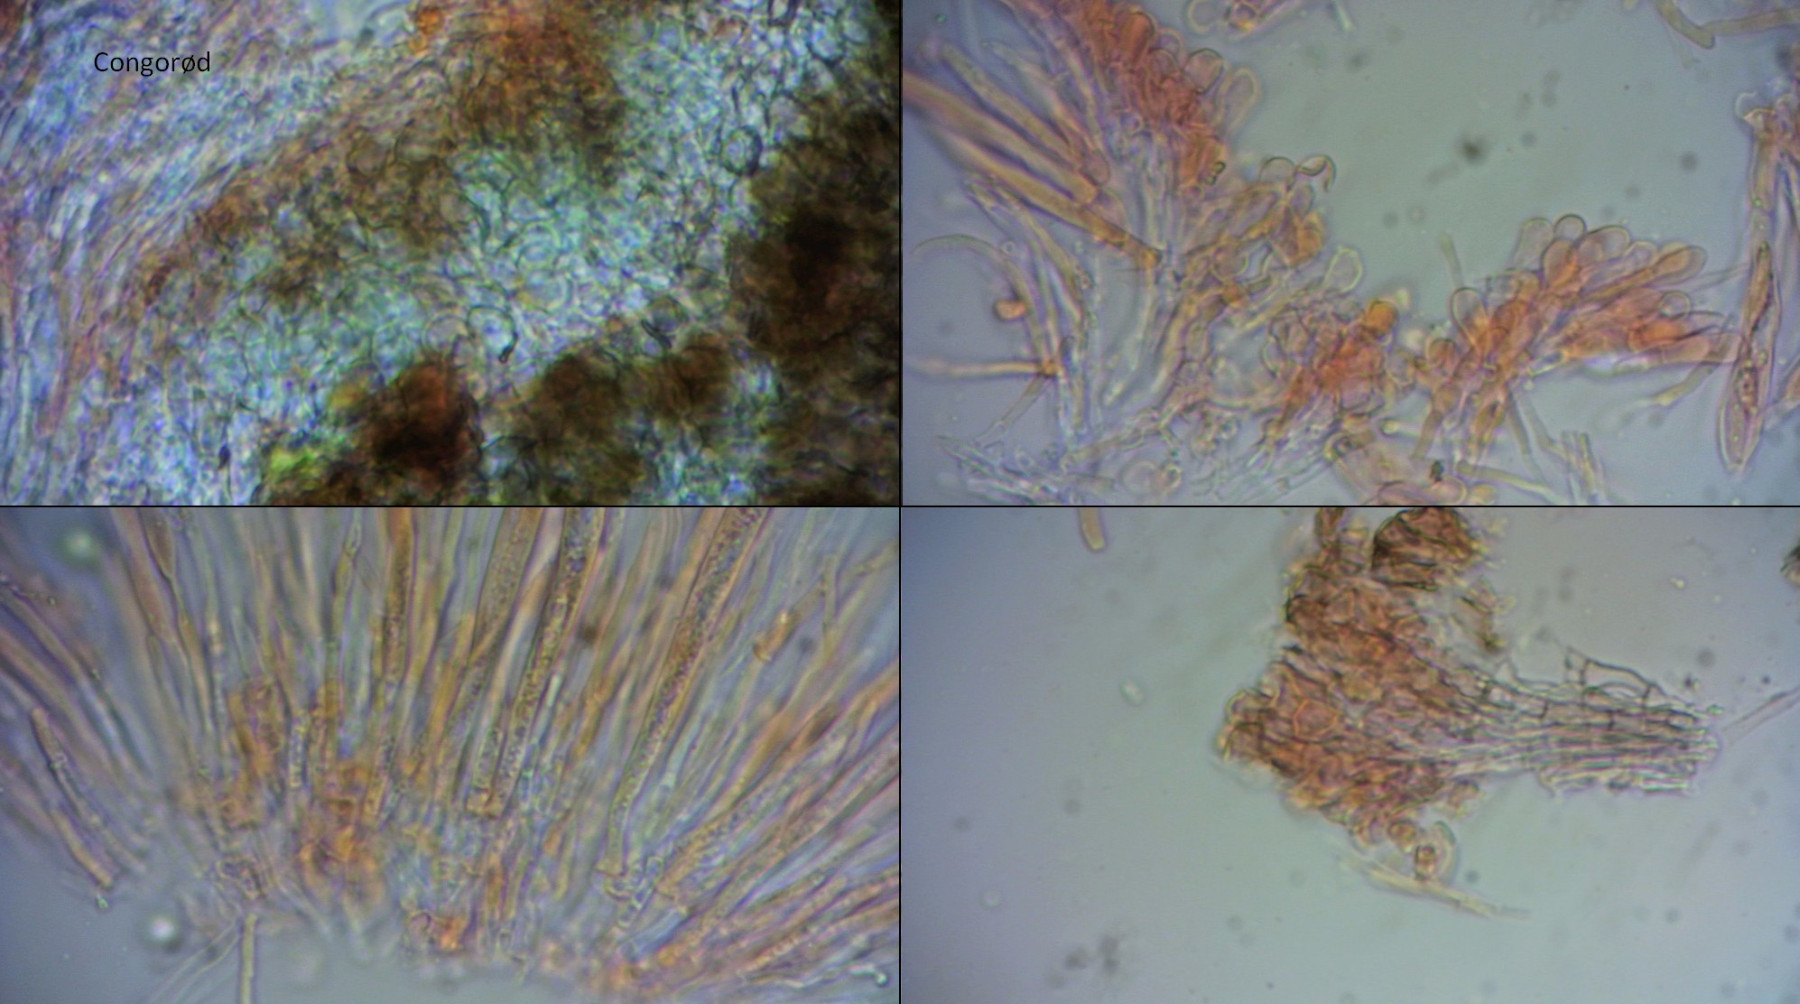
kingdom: Fungi
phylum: Ascomycota
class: Leotiomycetes
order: Helotiales
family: Mollisiaceae
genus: Mollisia
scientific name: Mollisia
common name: gråskive
